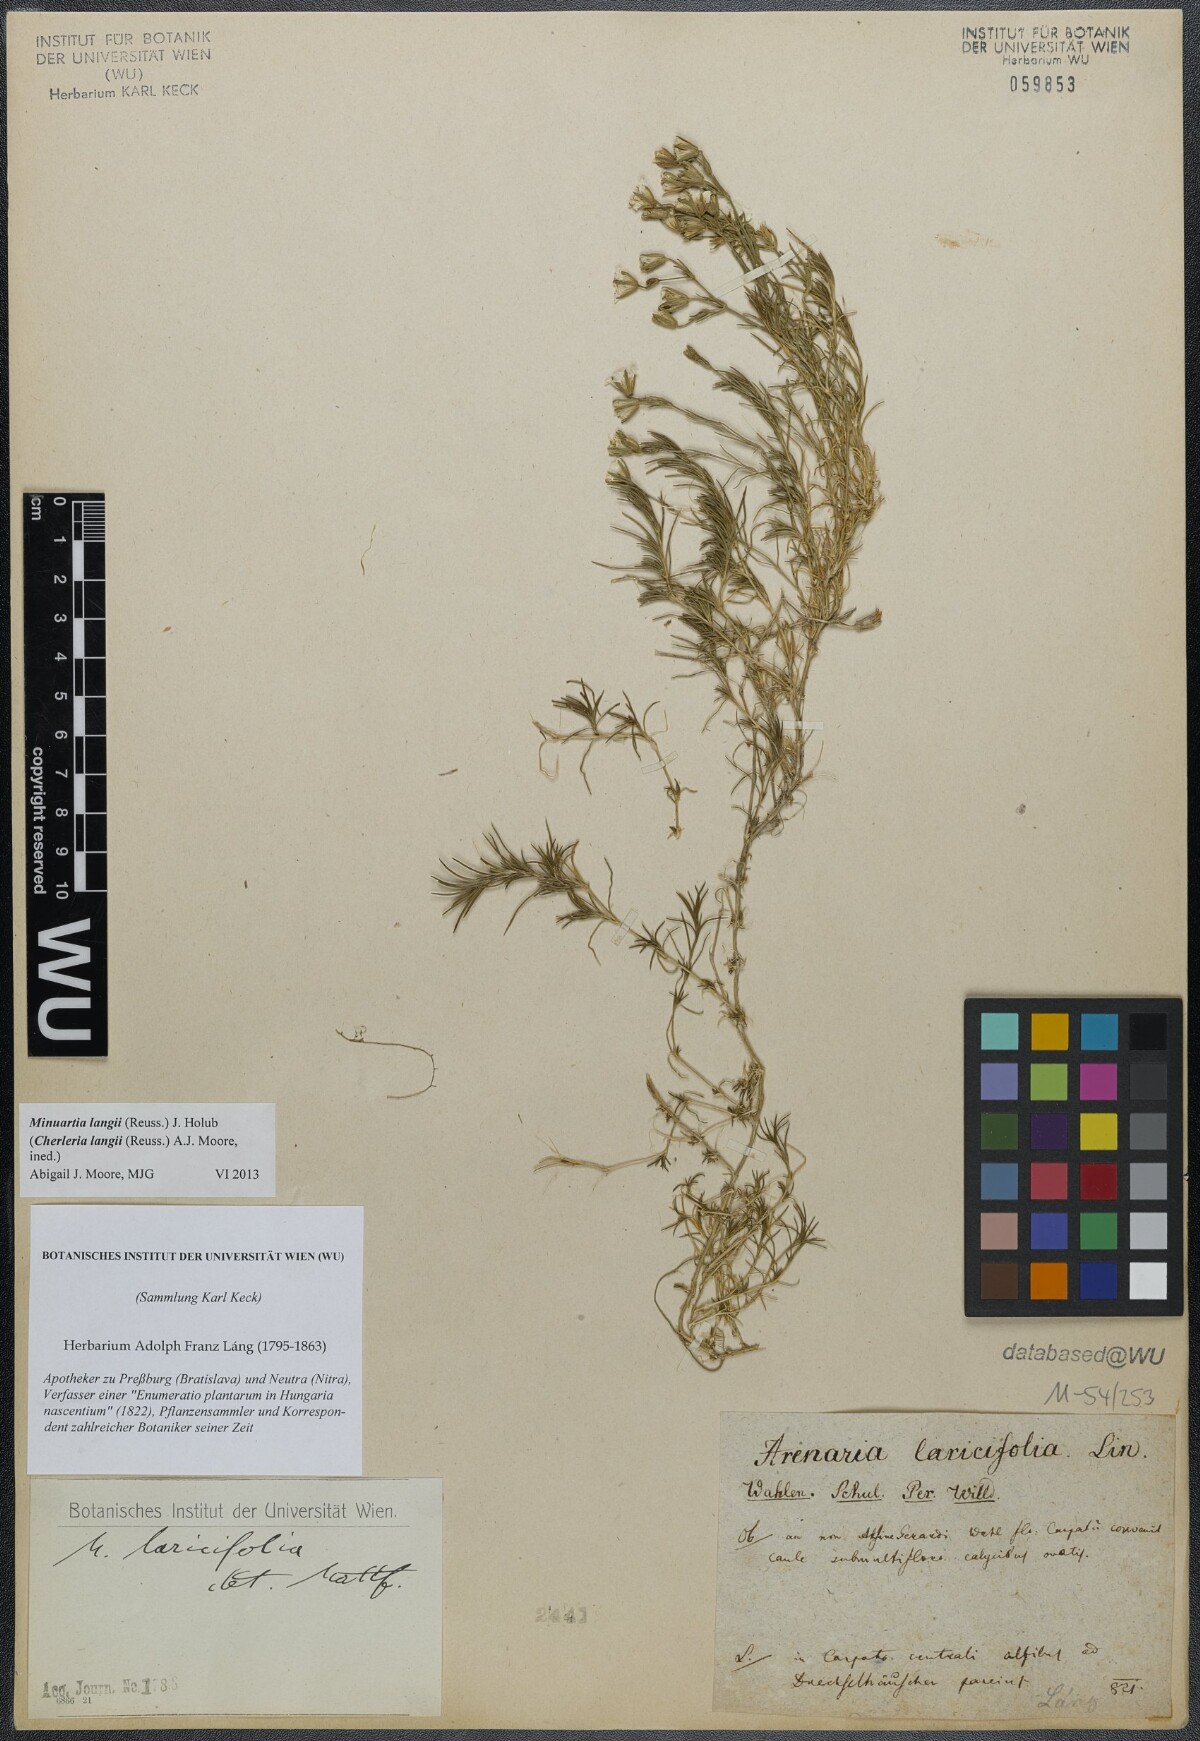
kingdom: Plantae
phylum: Tracheophyta
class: Magnoliopsida
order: Caryophyllales
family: Caryophyllaceae
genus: Cherleria
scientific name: Cherleria langii
